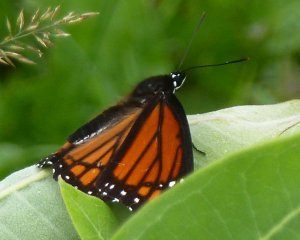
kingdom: Animalia
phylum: Arthropoda
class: Insecta
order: Lepidoptera
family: Nymphalidae
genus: Limenitis
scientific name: Limenitis archippus
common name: Viceroy
